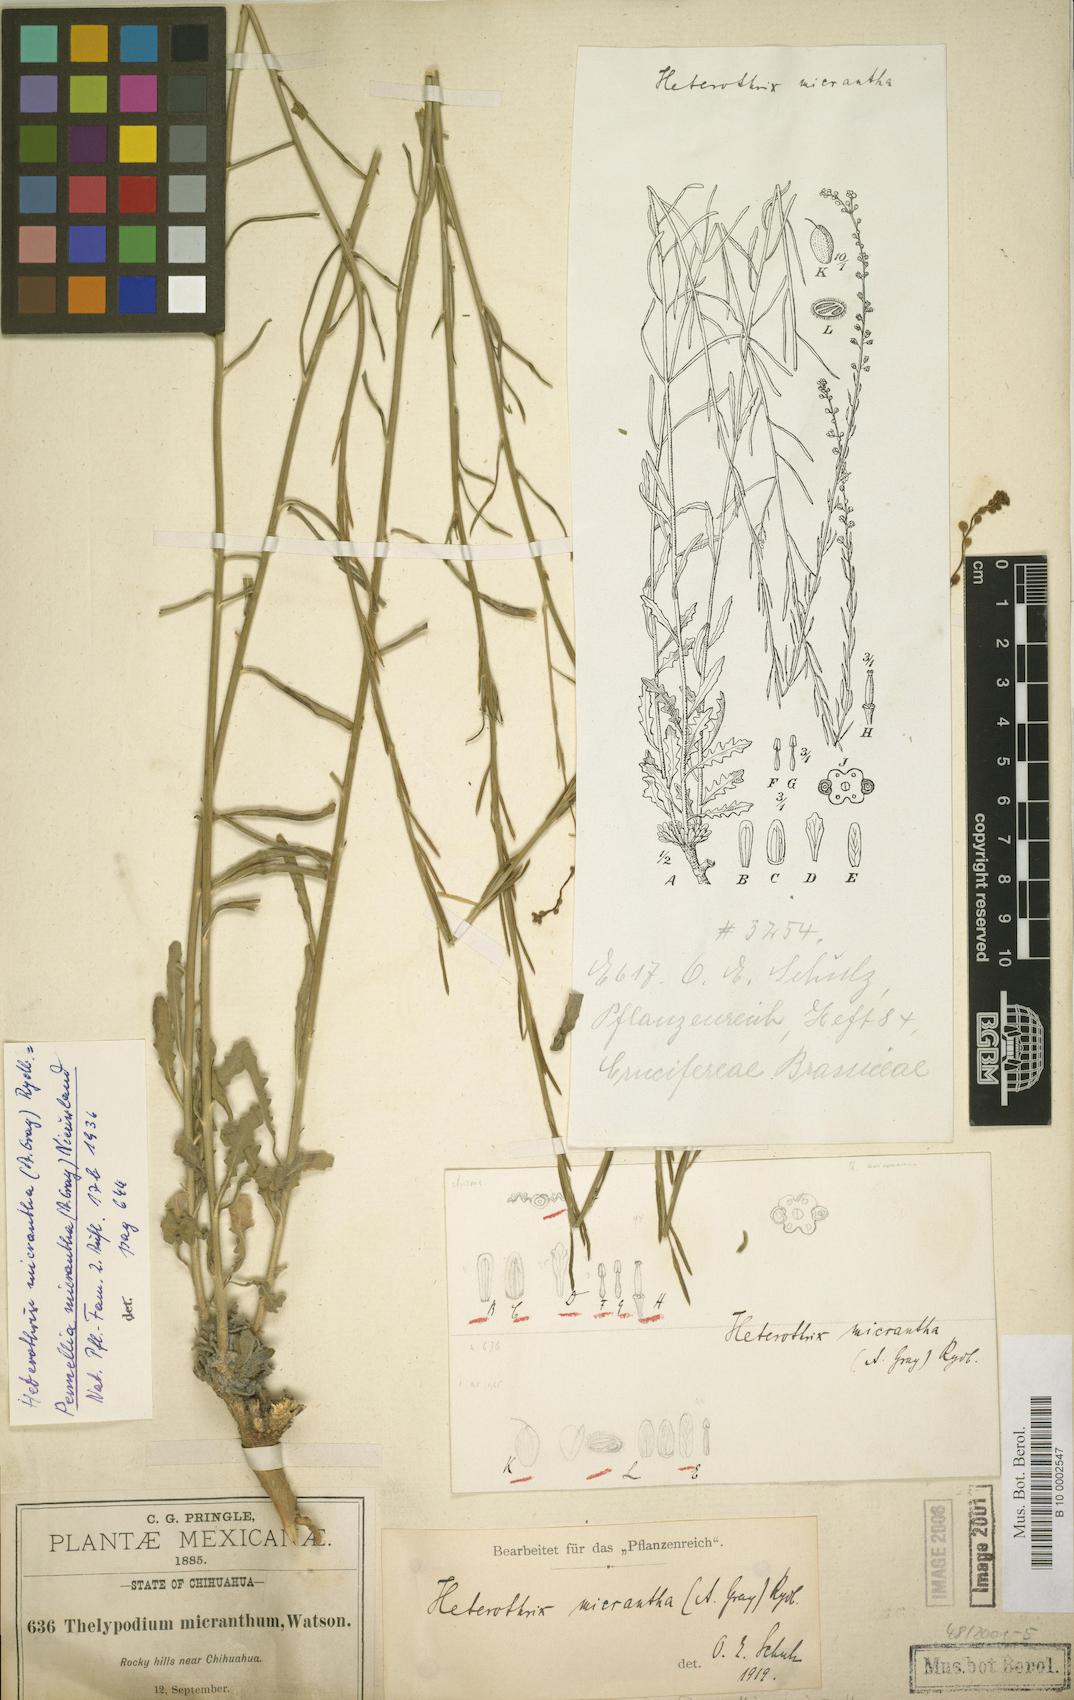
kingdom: Plantae
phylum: Tracheophyta
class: Magnoliopsida
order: Brassicales
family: Brassicaceae
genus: Pennellia
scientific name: Pennellia micrantha
